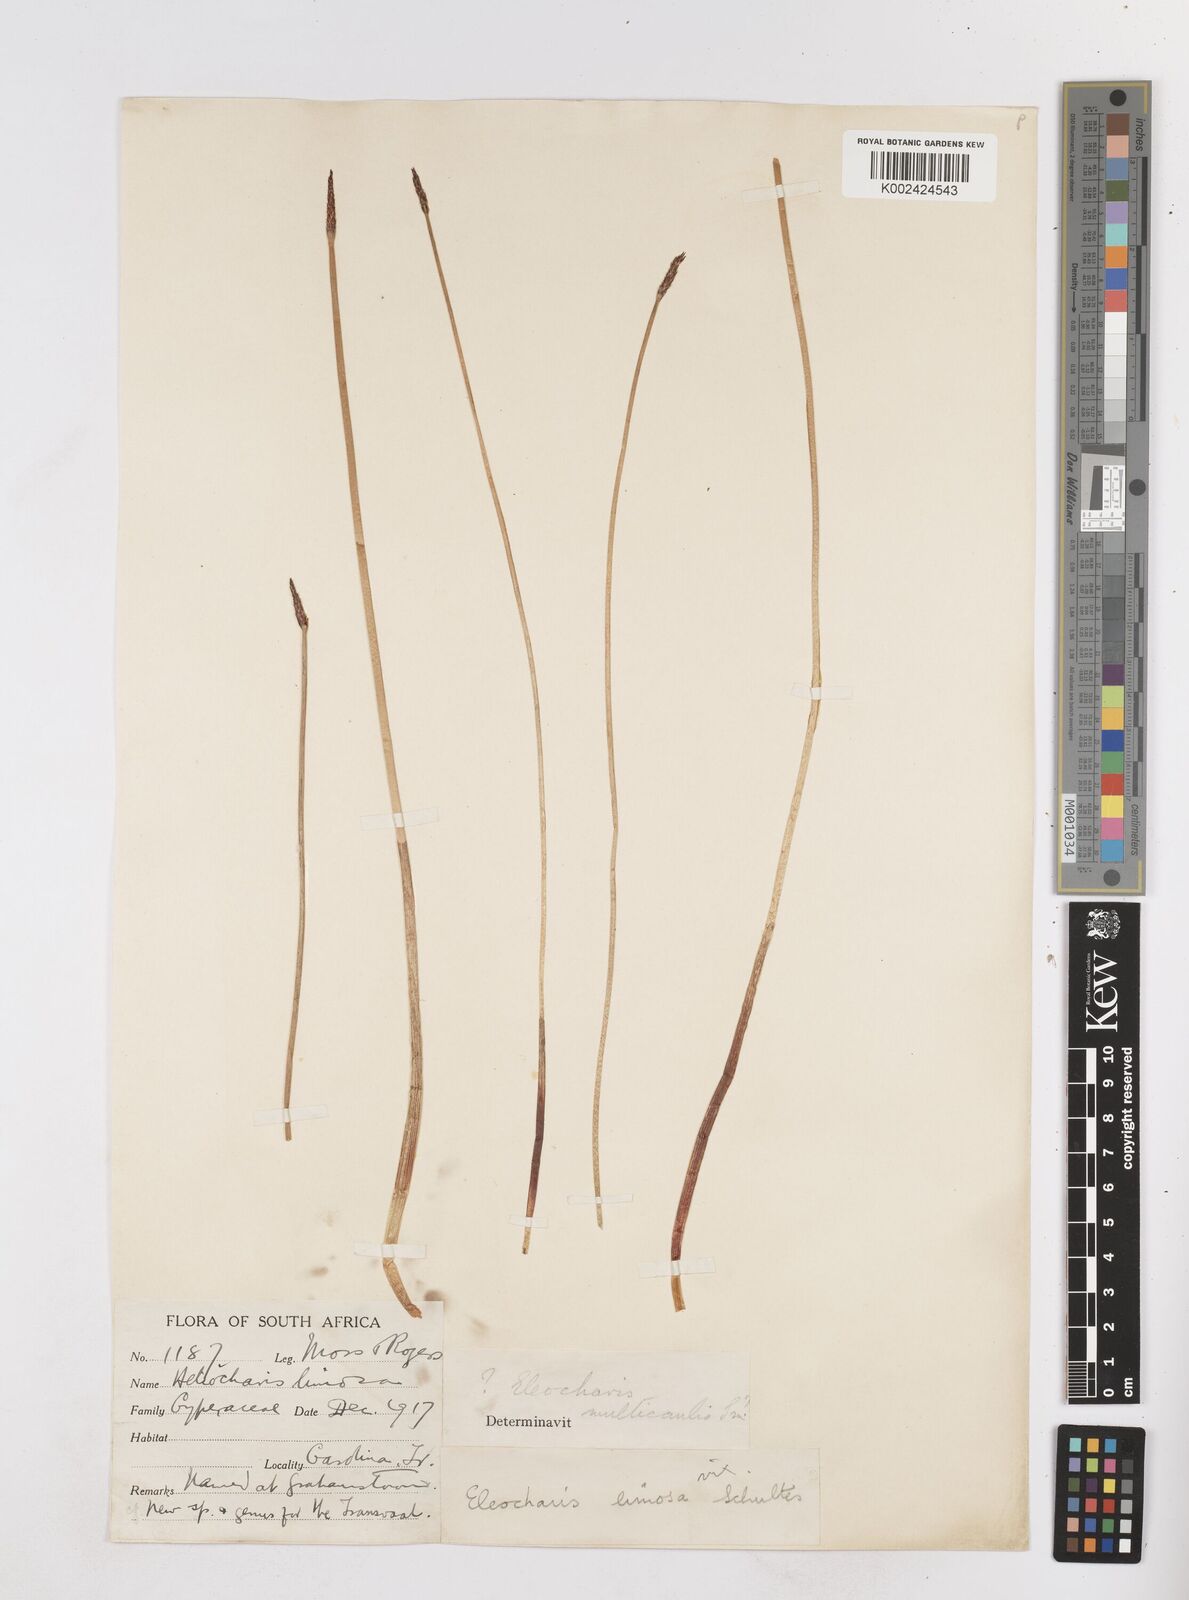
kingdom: Plantae
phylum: Tracheophyta
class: Liliopsida
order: Poales
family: Cyperaceae
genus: Eleocharis
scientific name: Eleocharis palustris
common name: Common spike-rush
